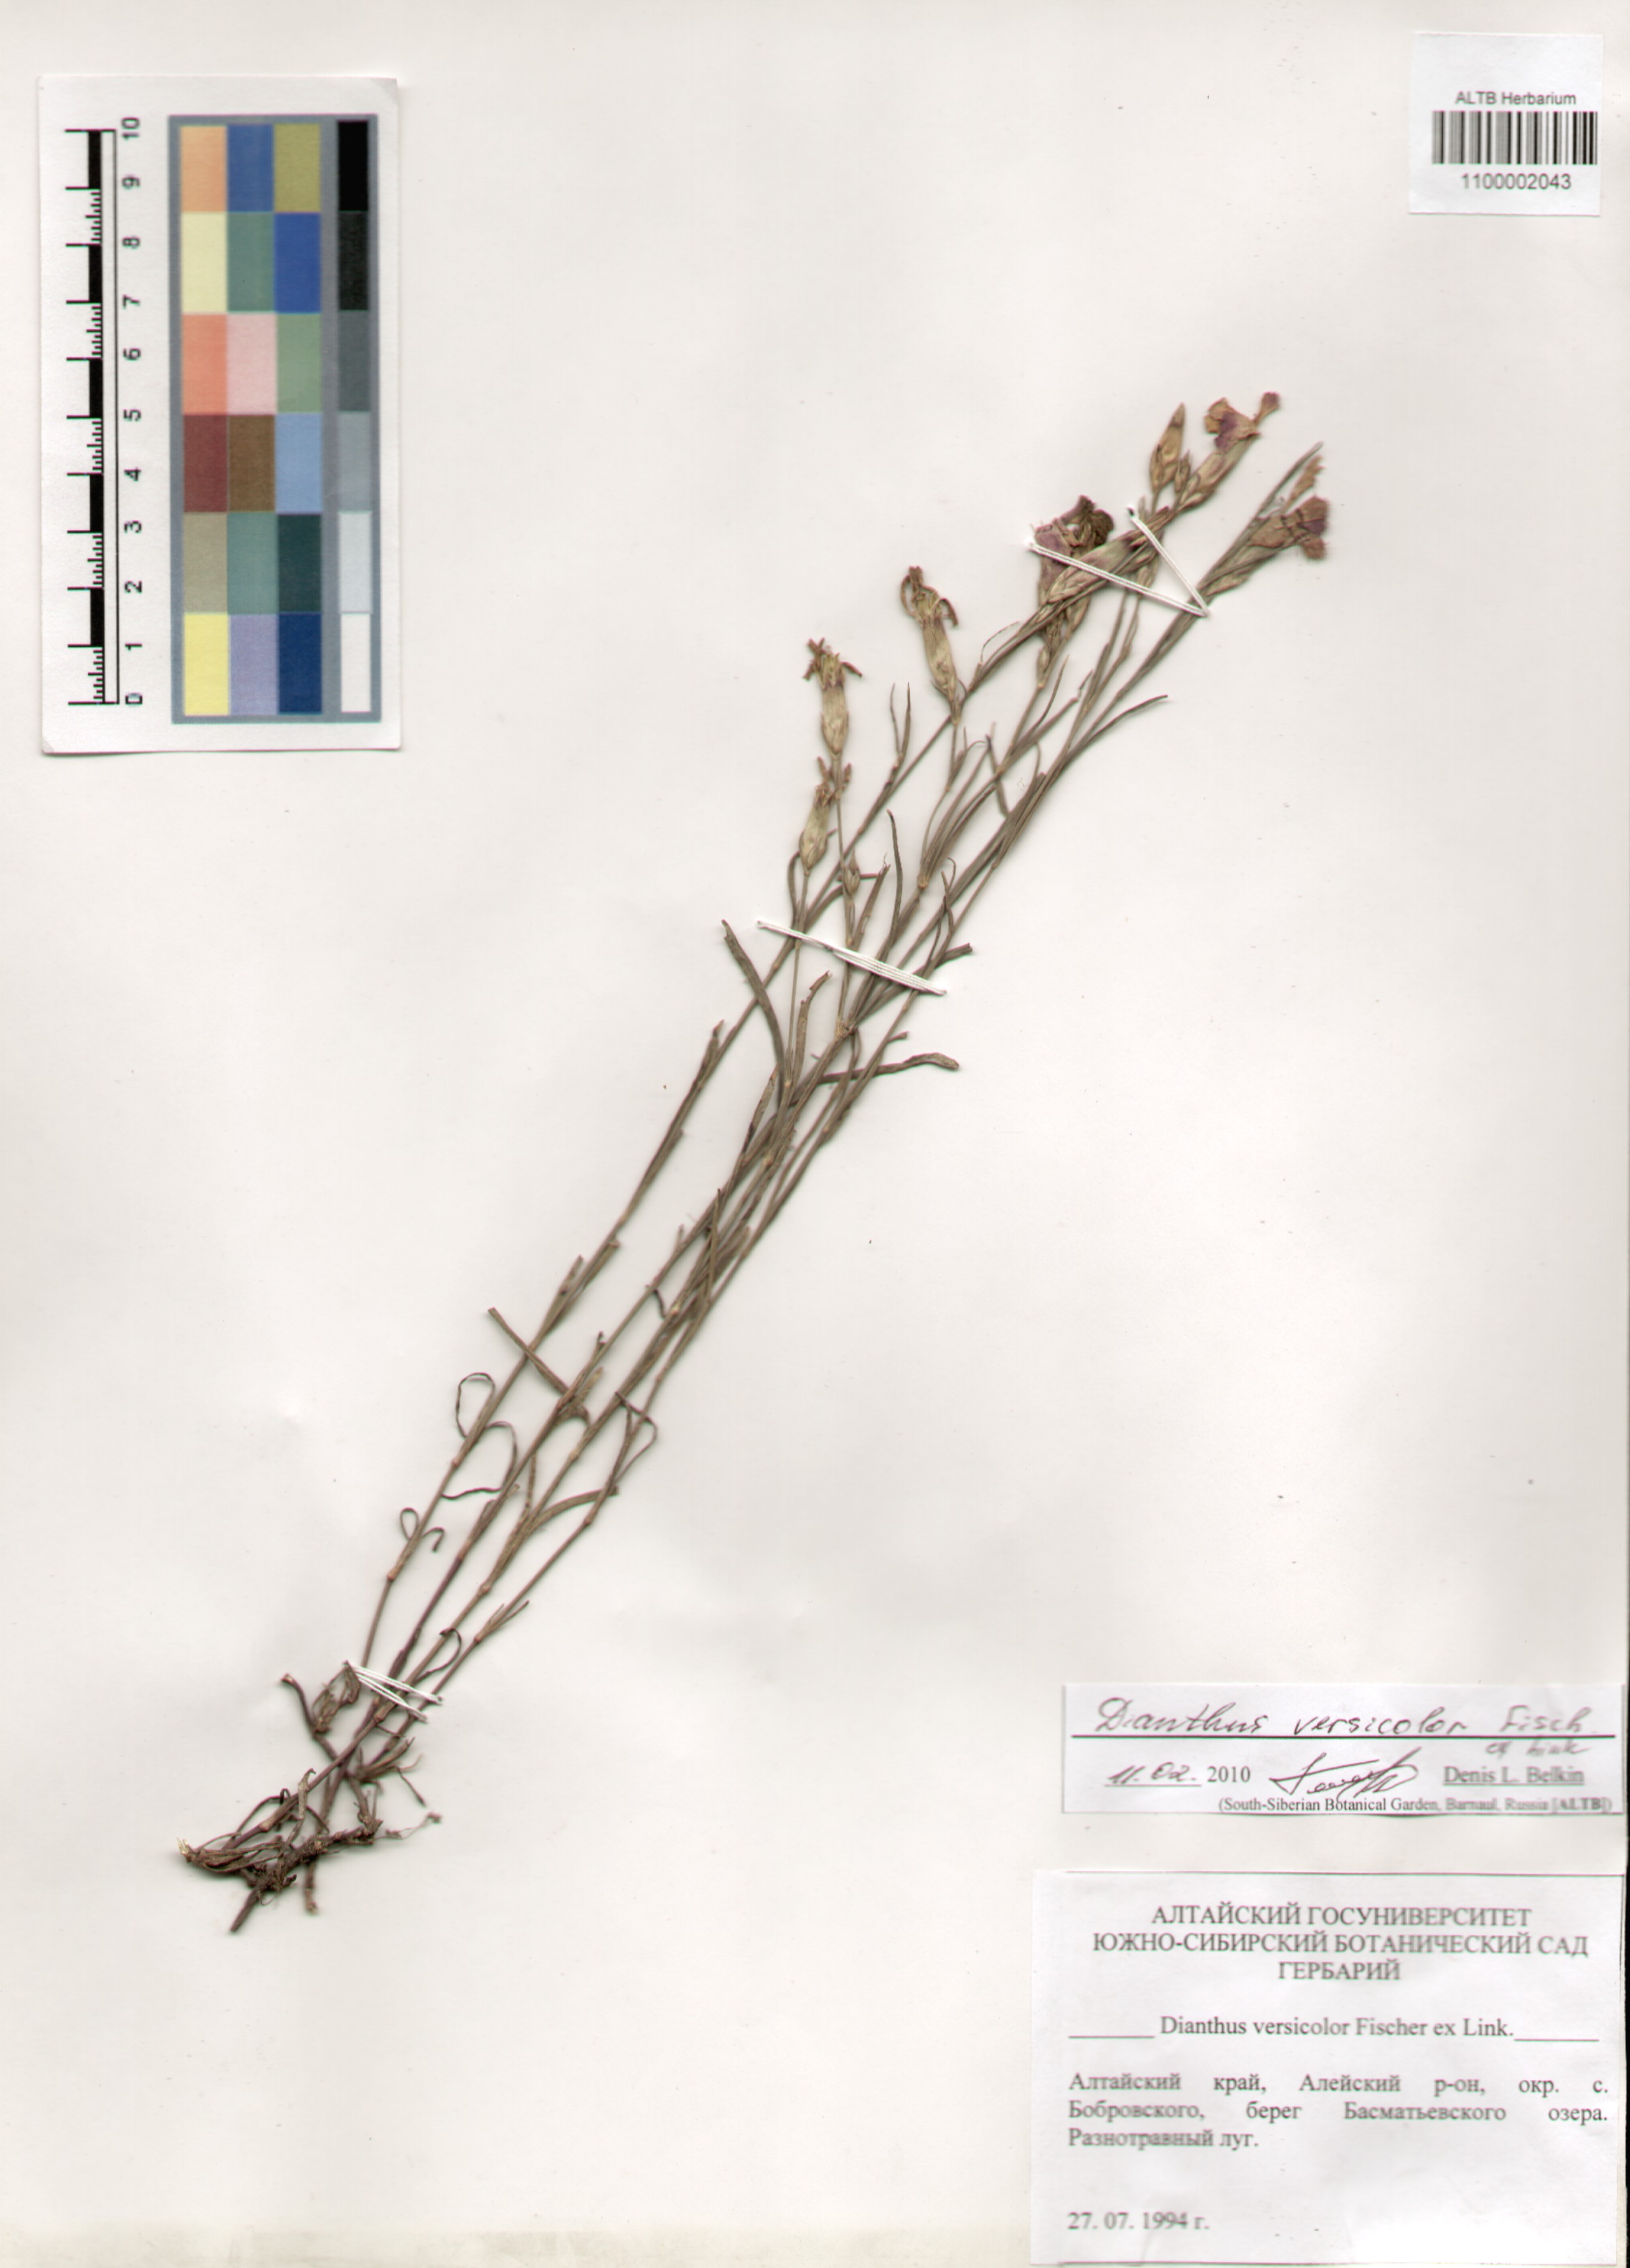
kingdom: Plantae
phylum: Tracheophyta
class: Magnoliopsida
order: Caryophyllales
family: Caryophyllaceae
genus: Dianthus
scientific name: Dianthus chinensis
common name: Rainbow pink
